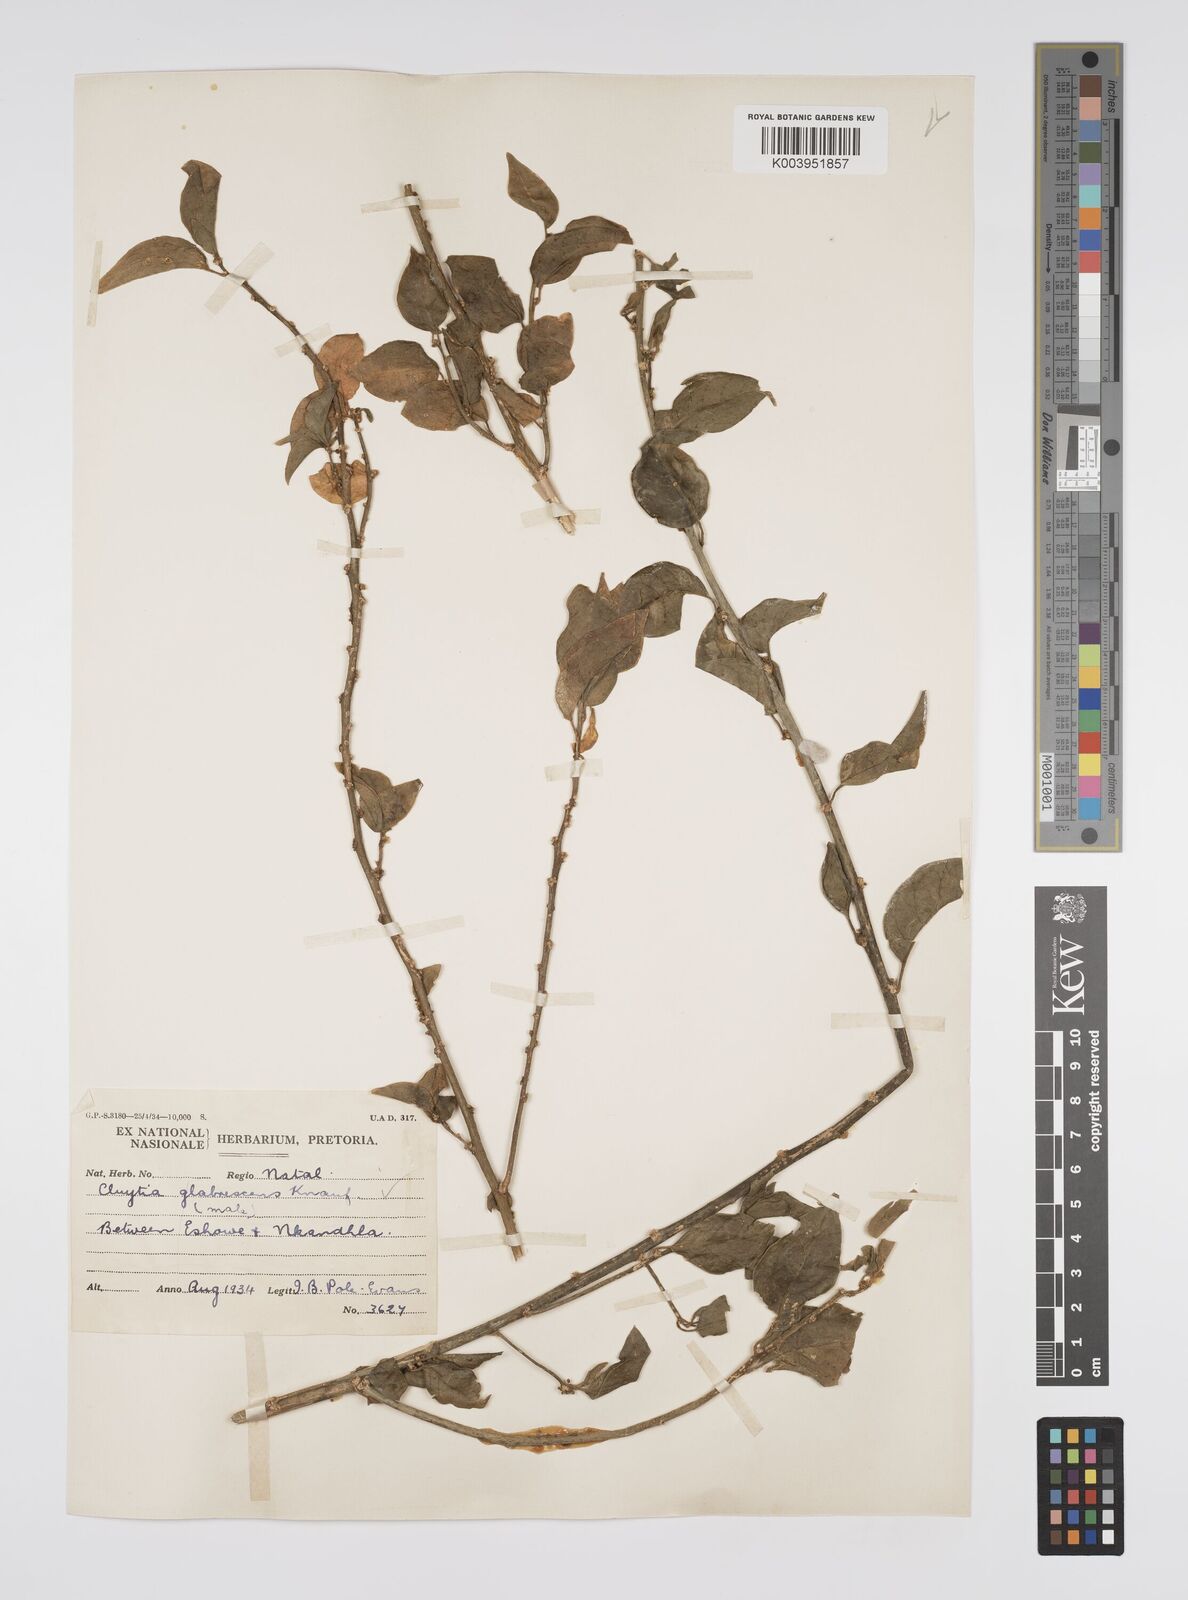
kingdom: Plantae
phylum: Tracheophyta
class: Magnoliopsida
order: Malpighiales
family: Peraceae
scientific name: Peraceae
